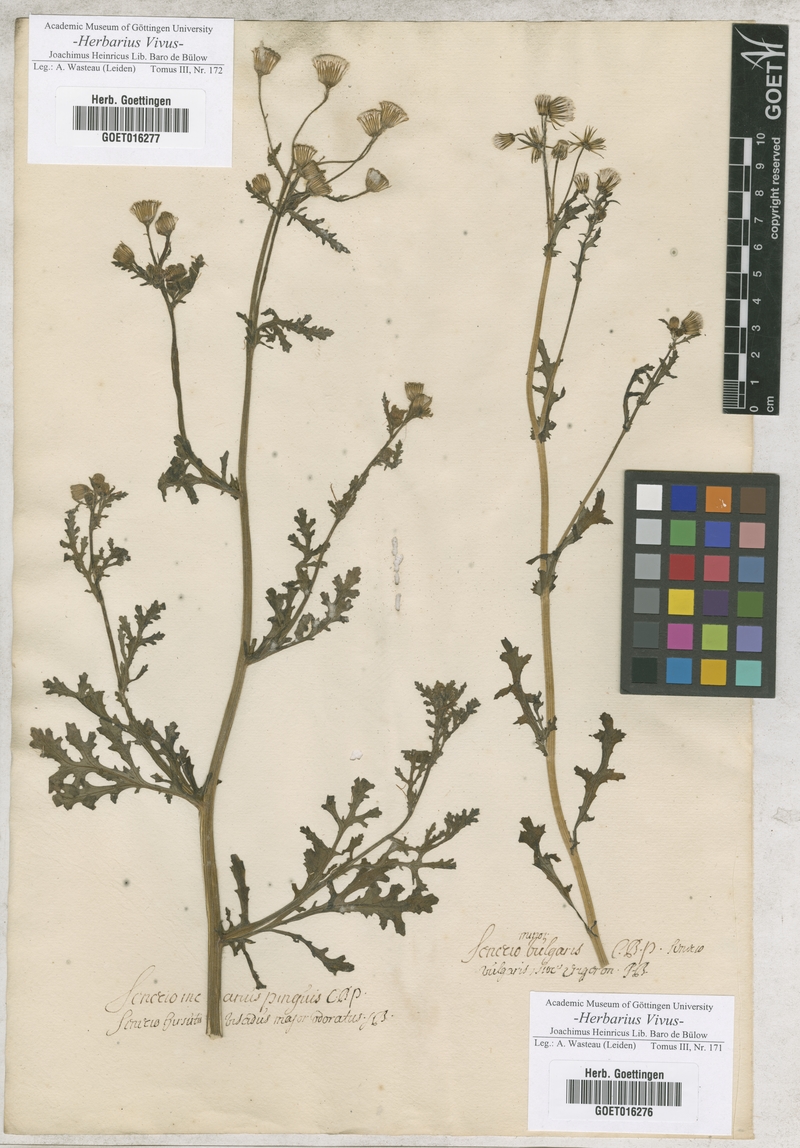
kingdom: Plantae
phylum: Tracheophyta
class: Magnoliopsida
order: Asterales
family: Asteraceae
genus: Senecio
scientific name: Senecio vulgaris
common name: Old-man-in-the-spring
